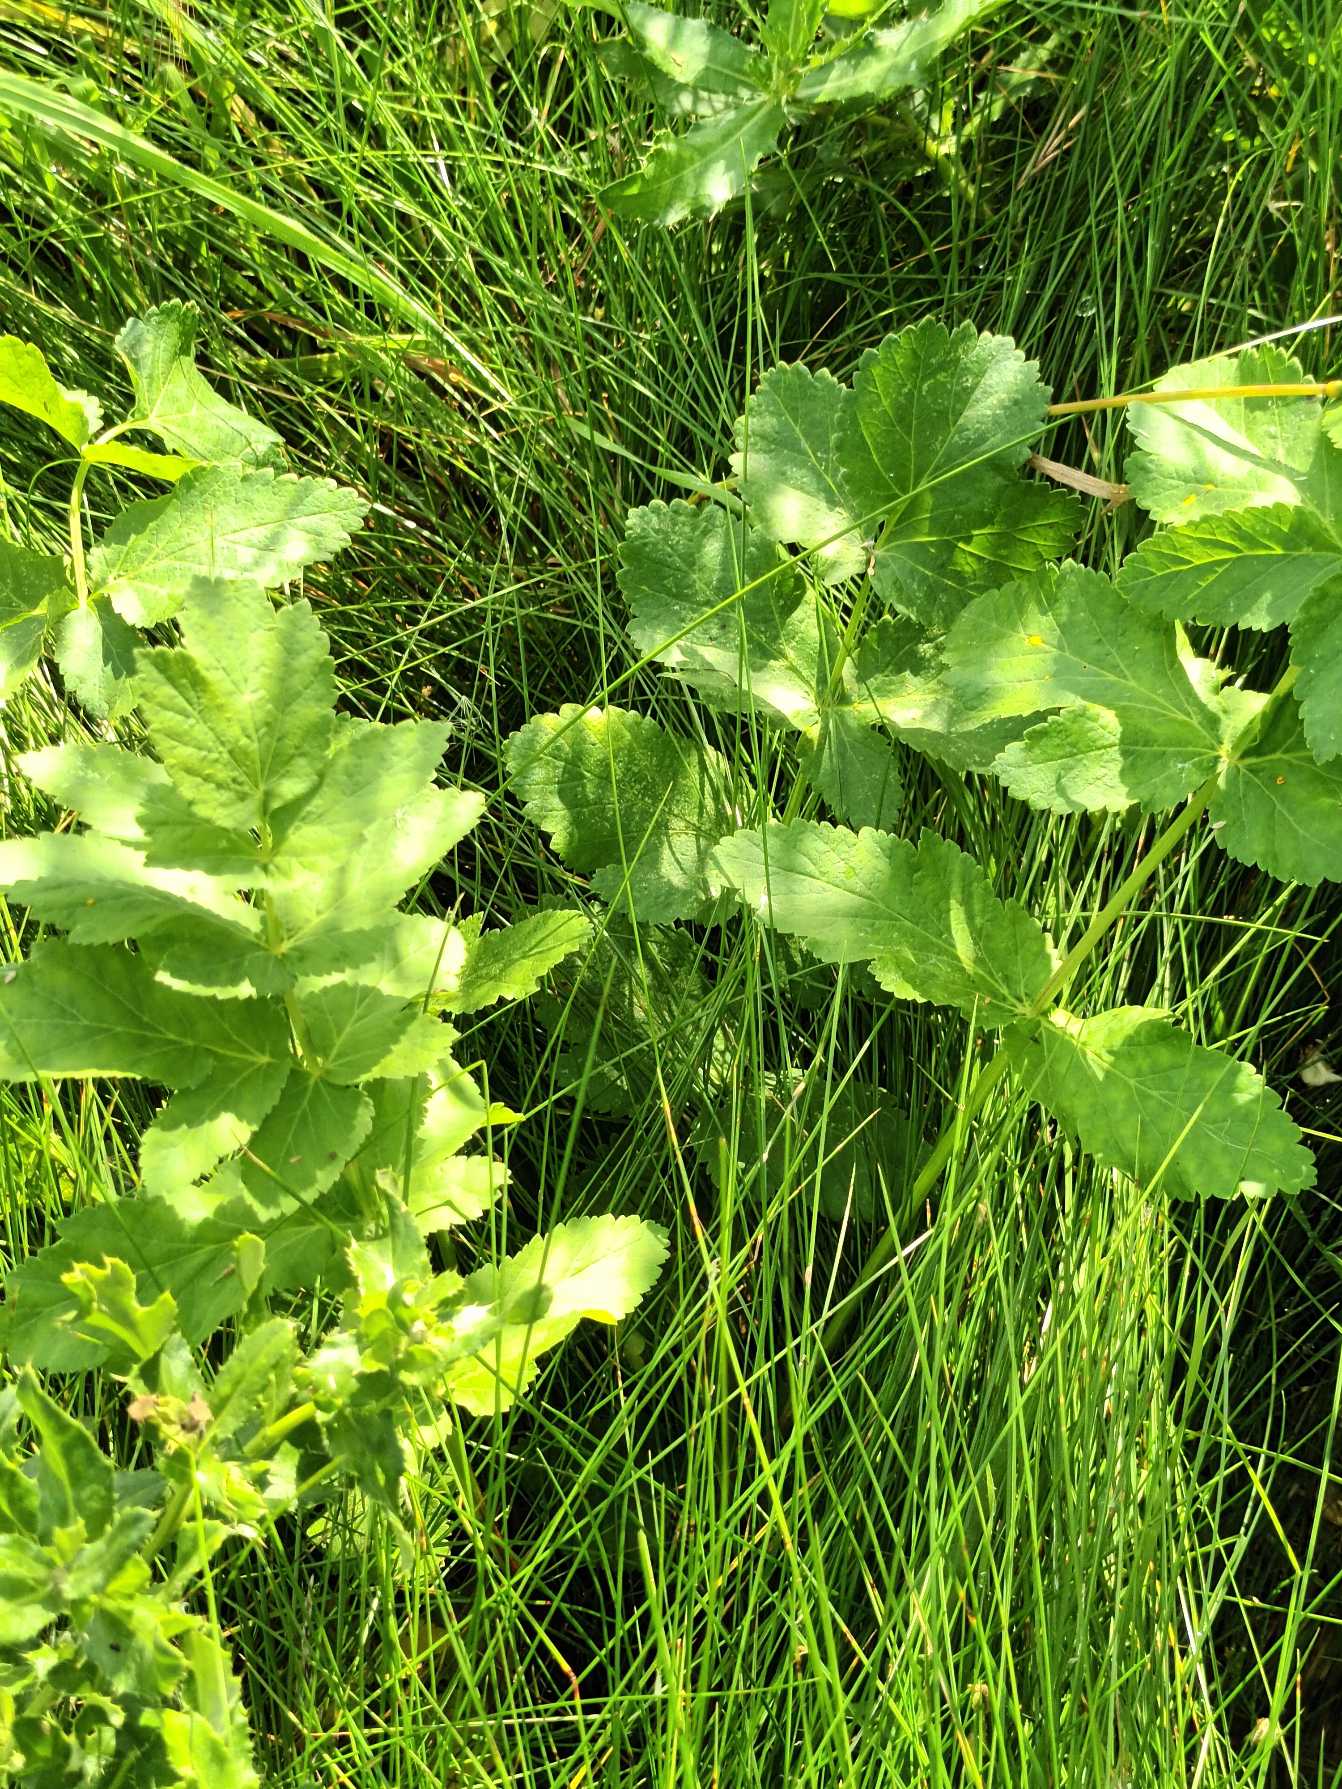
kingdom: Plantae
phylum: Tracheophyta
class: Magnoliopsida
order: Apiales
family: Apiaceae
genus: Pastinaca
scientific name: Pastinaca sativa
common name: Pastinak
